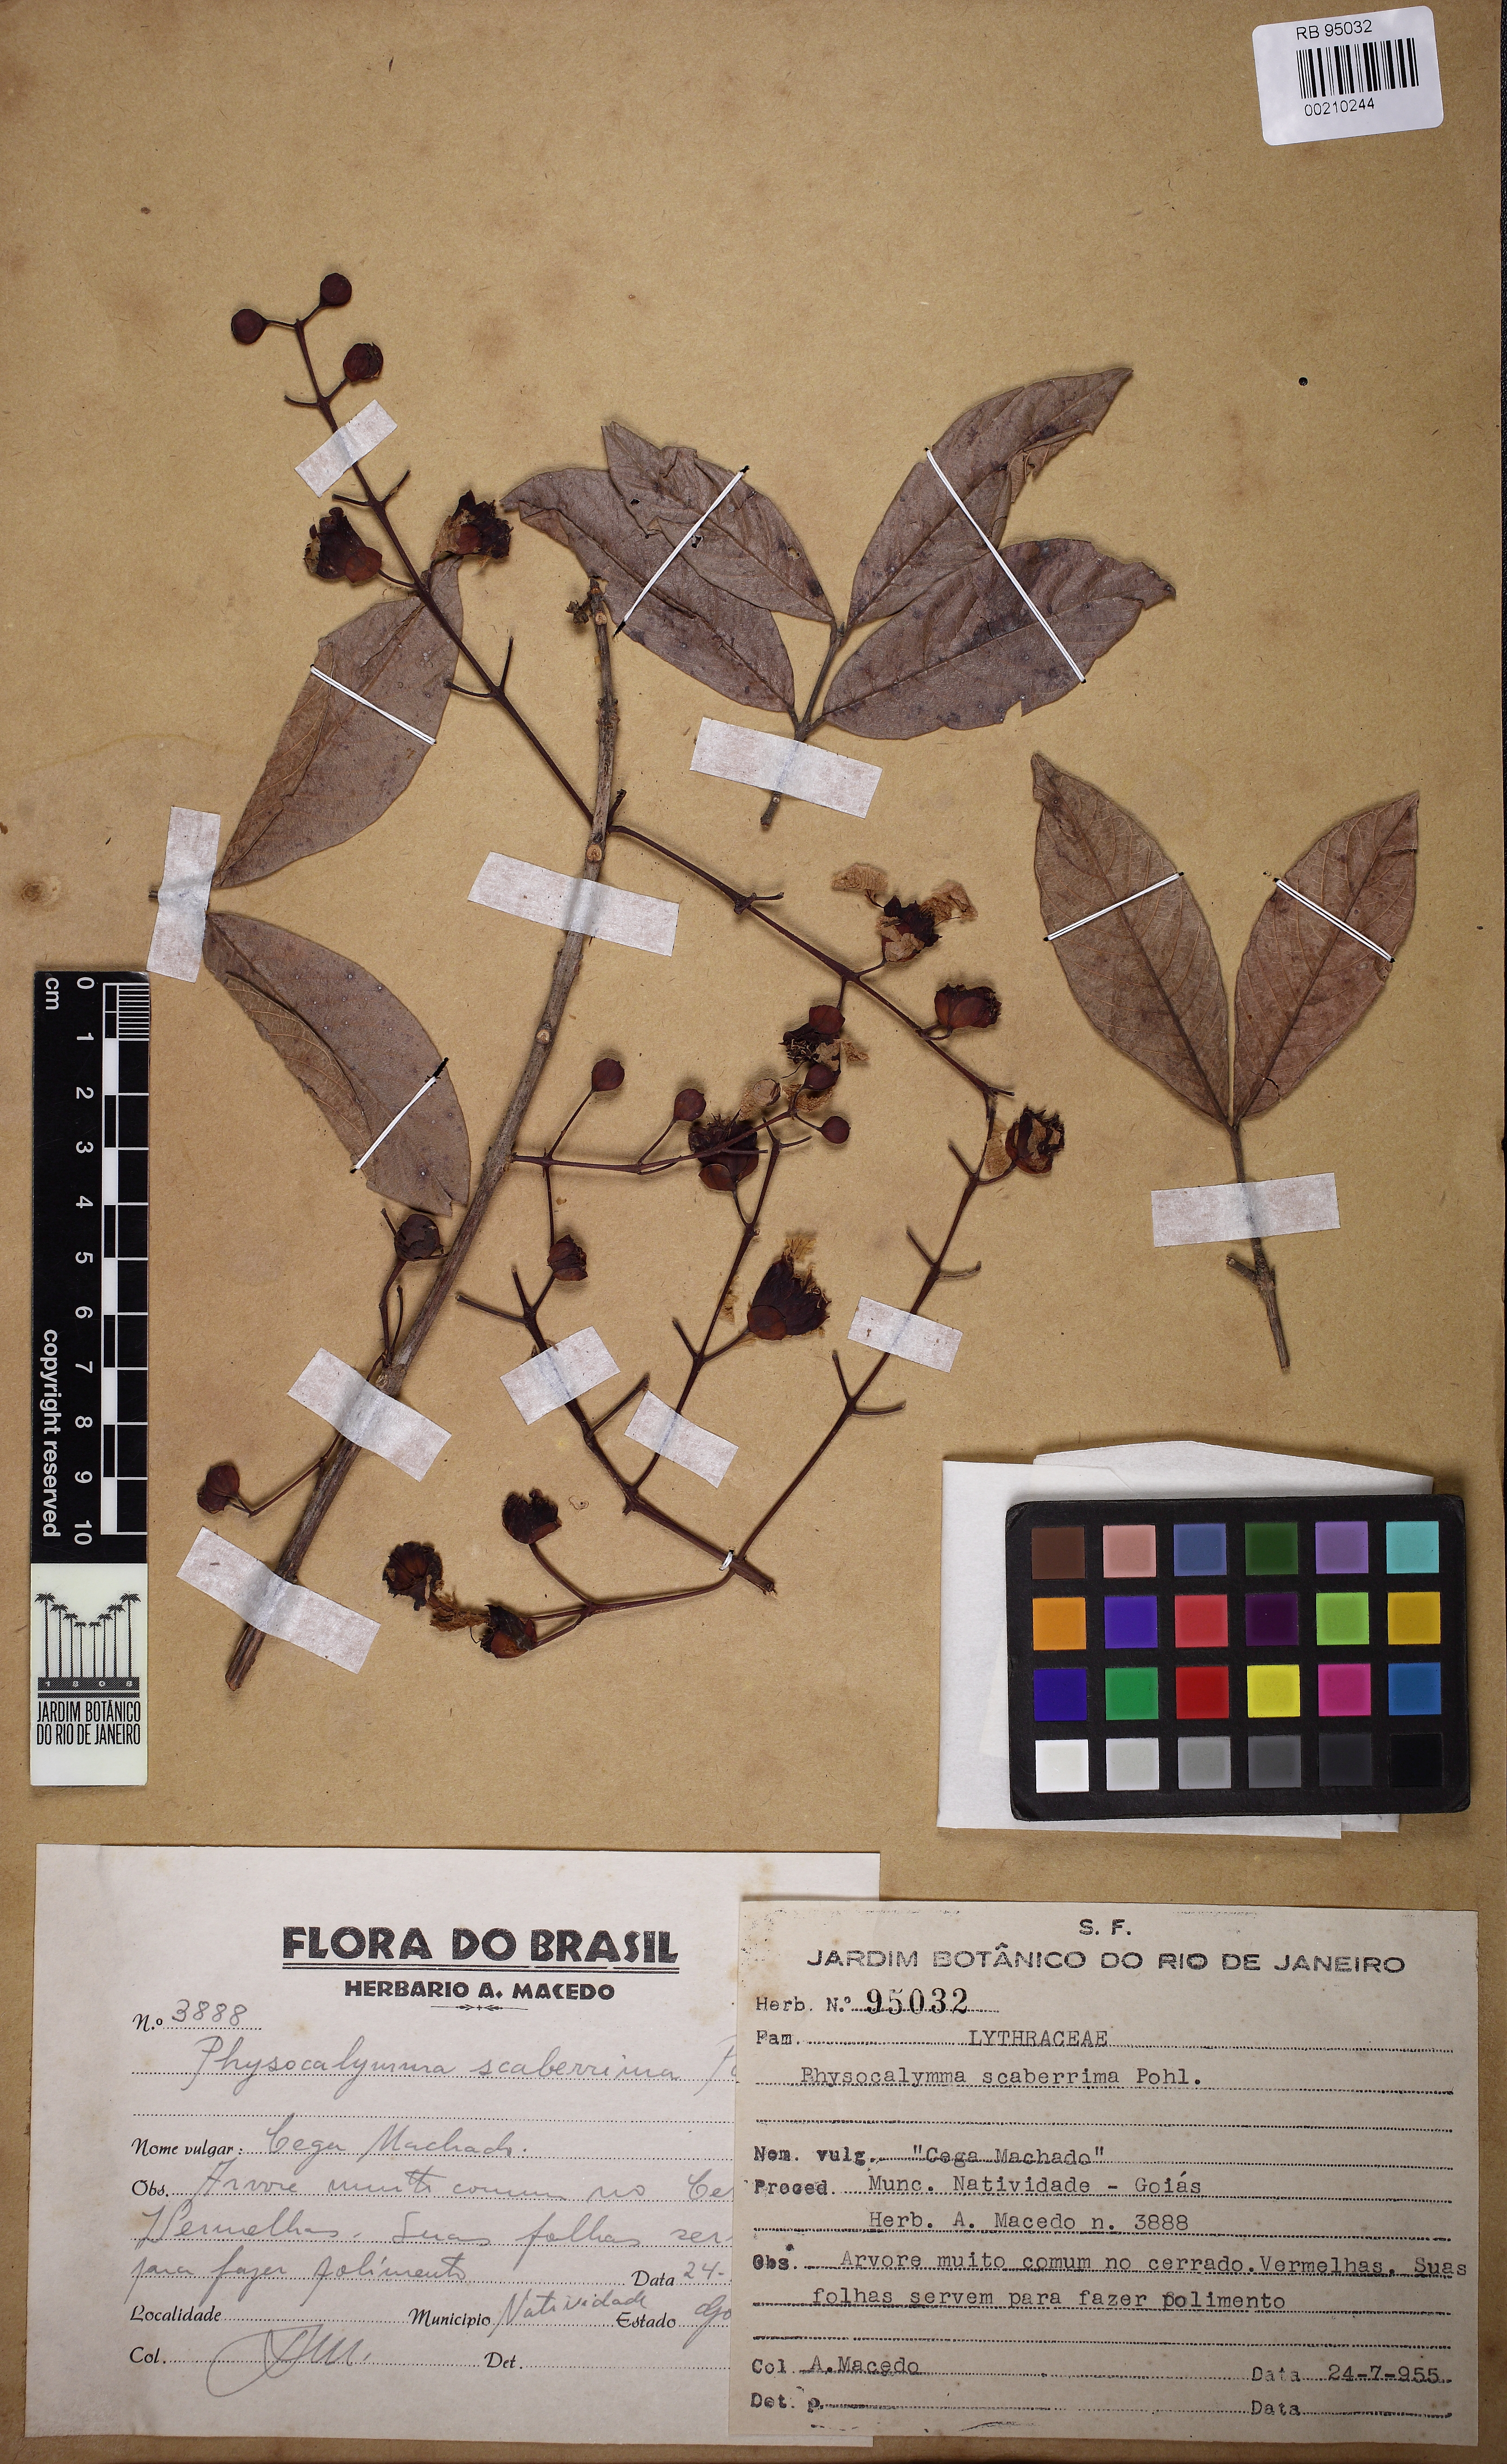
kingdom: Plantae
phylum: Tracheophyta
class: Magnoliopsida
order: Myrtales
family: Lythraceae
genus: Physocalymma
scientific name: Physocalymma scaberrimum
